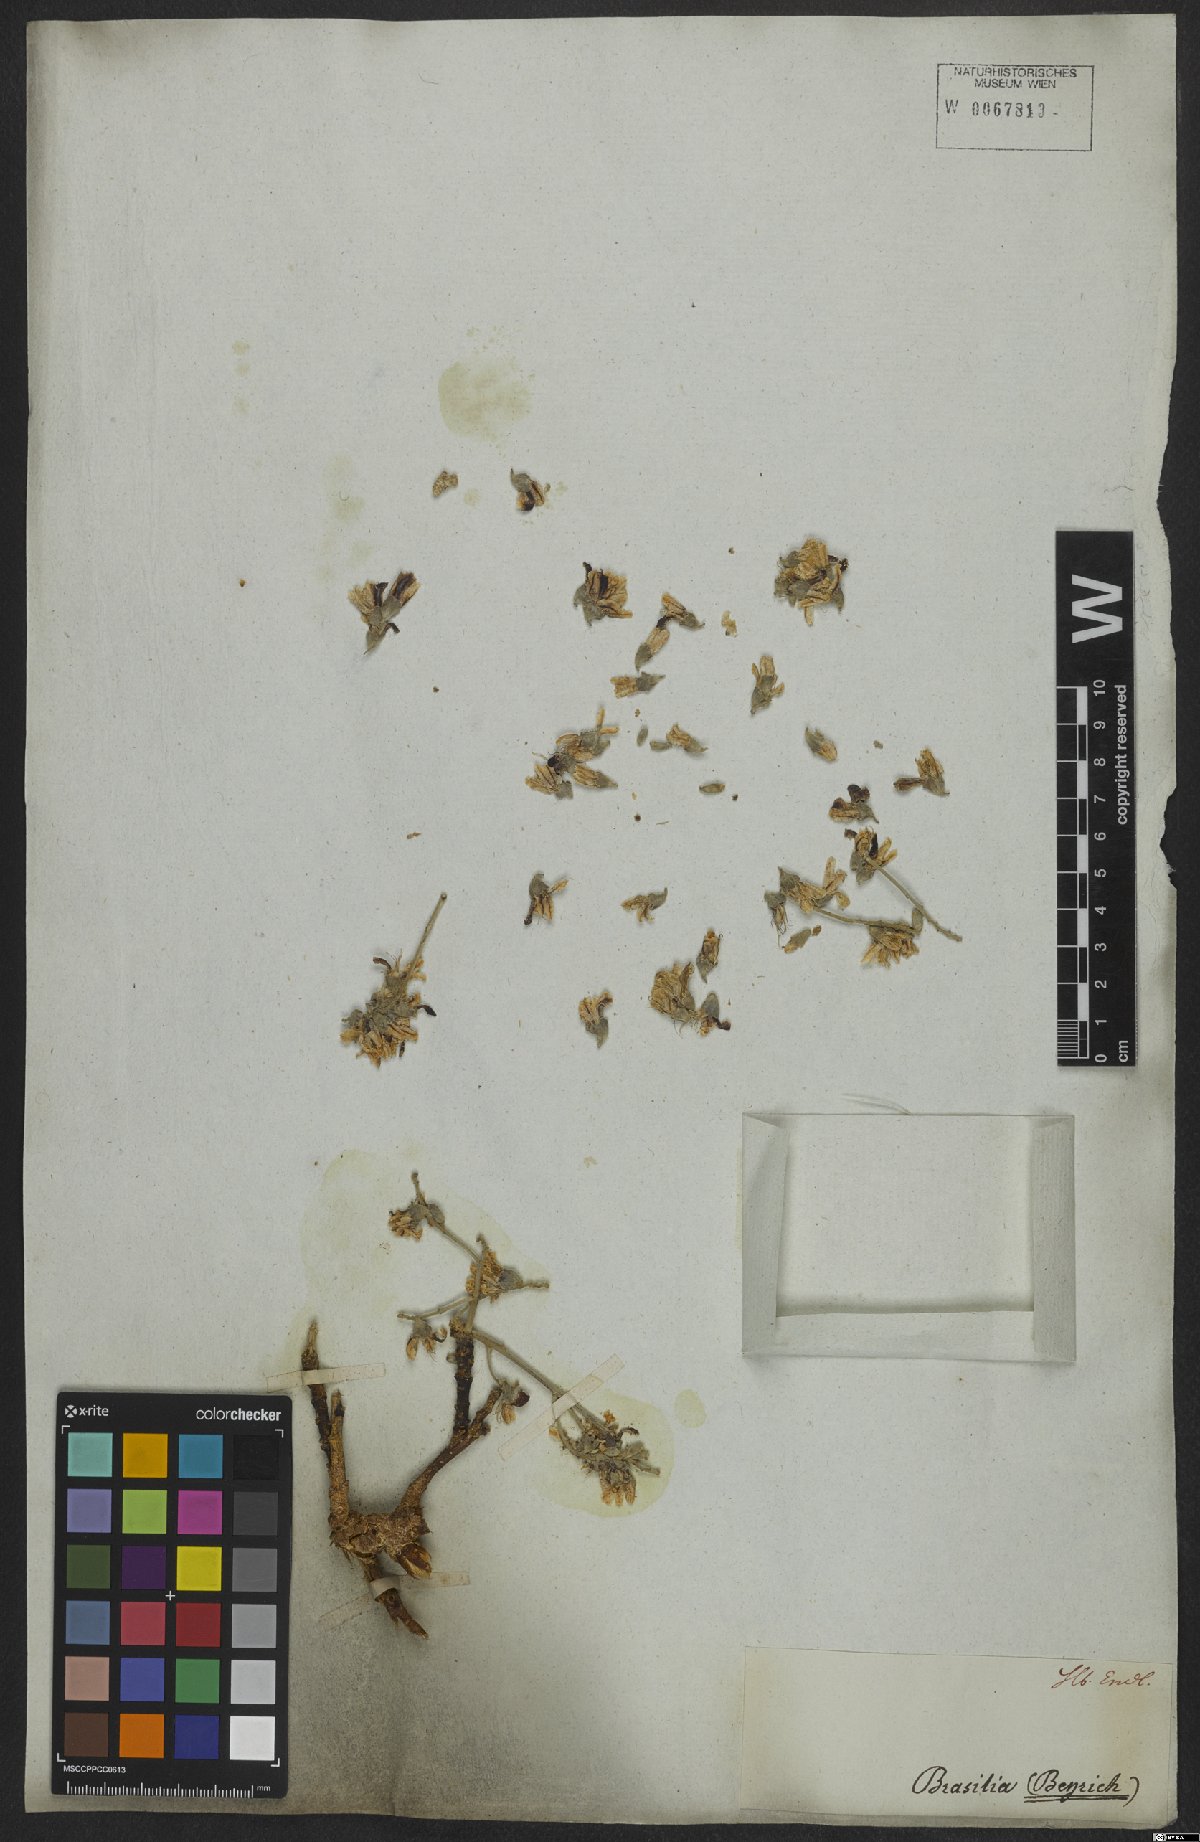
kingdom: Plantae
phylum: Tracheophyta
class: Magnoliopsida
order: Fabales
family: Fabaceae
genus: Ormosia
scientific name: Ormosia
